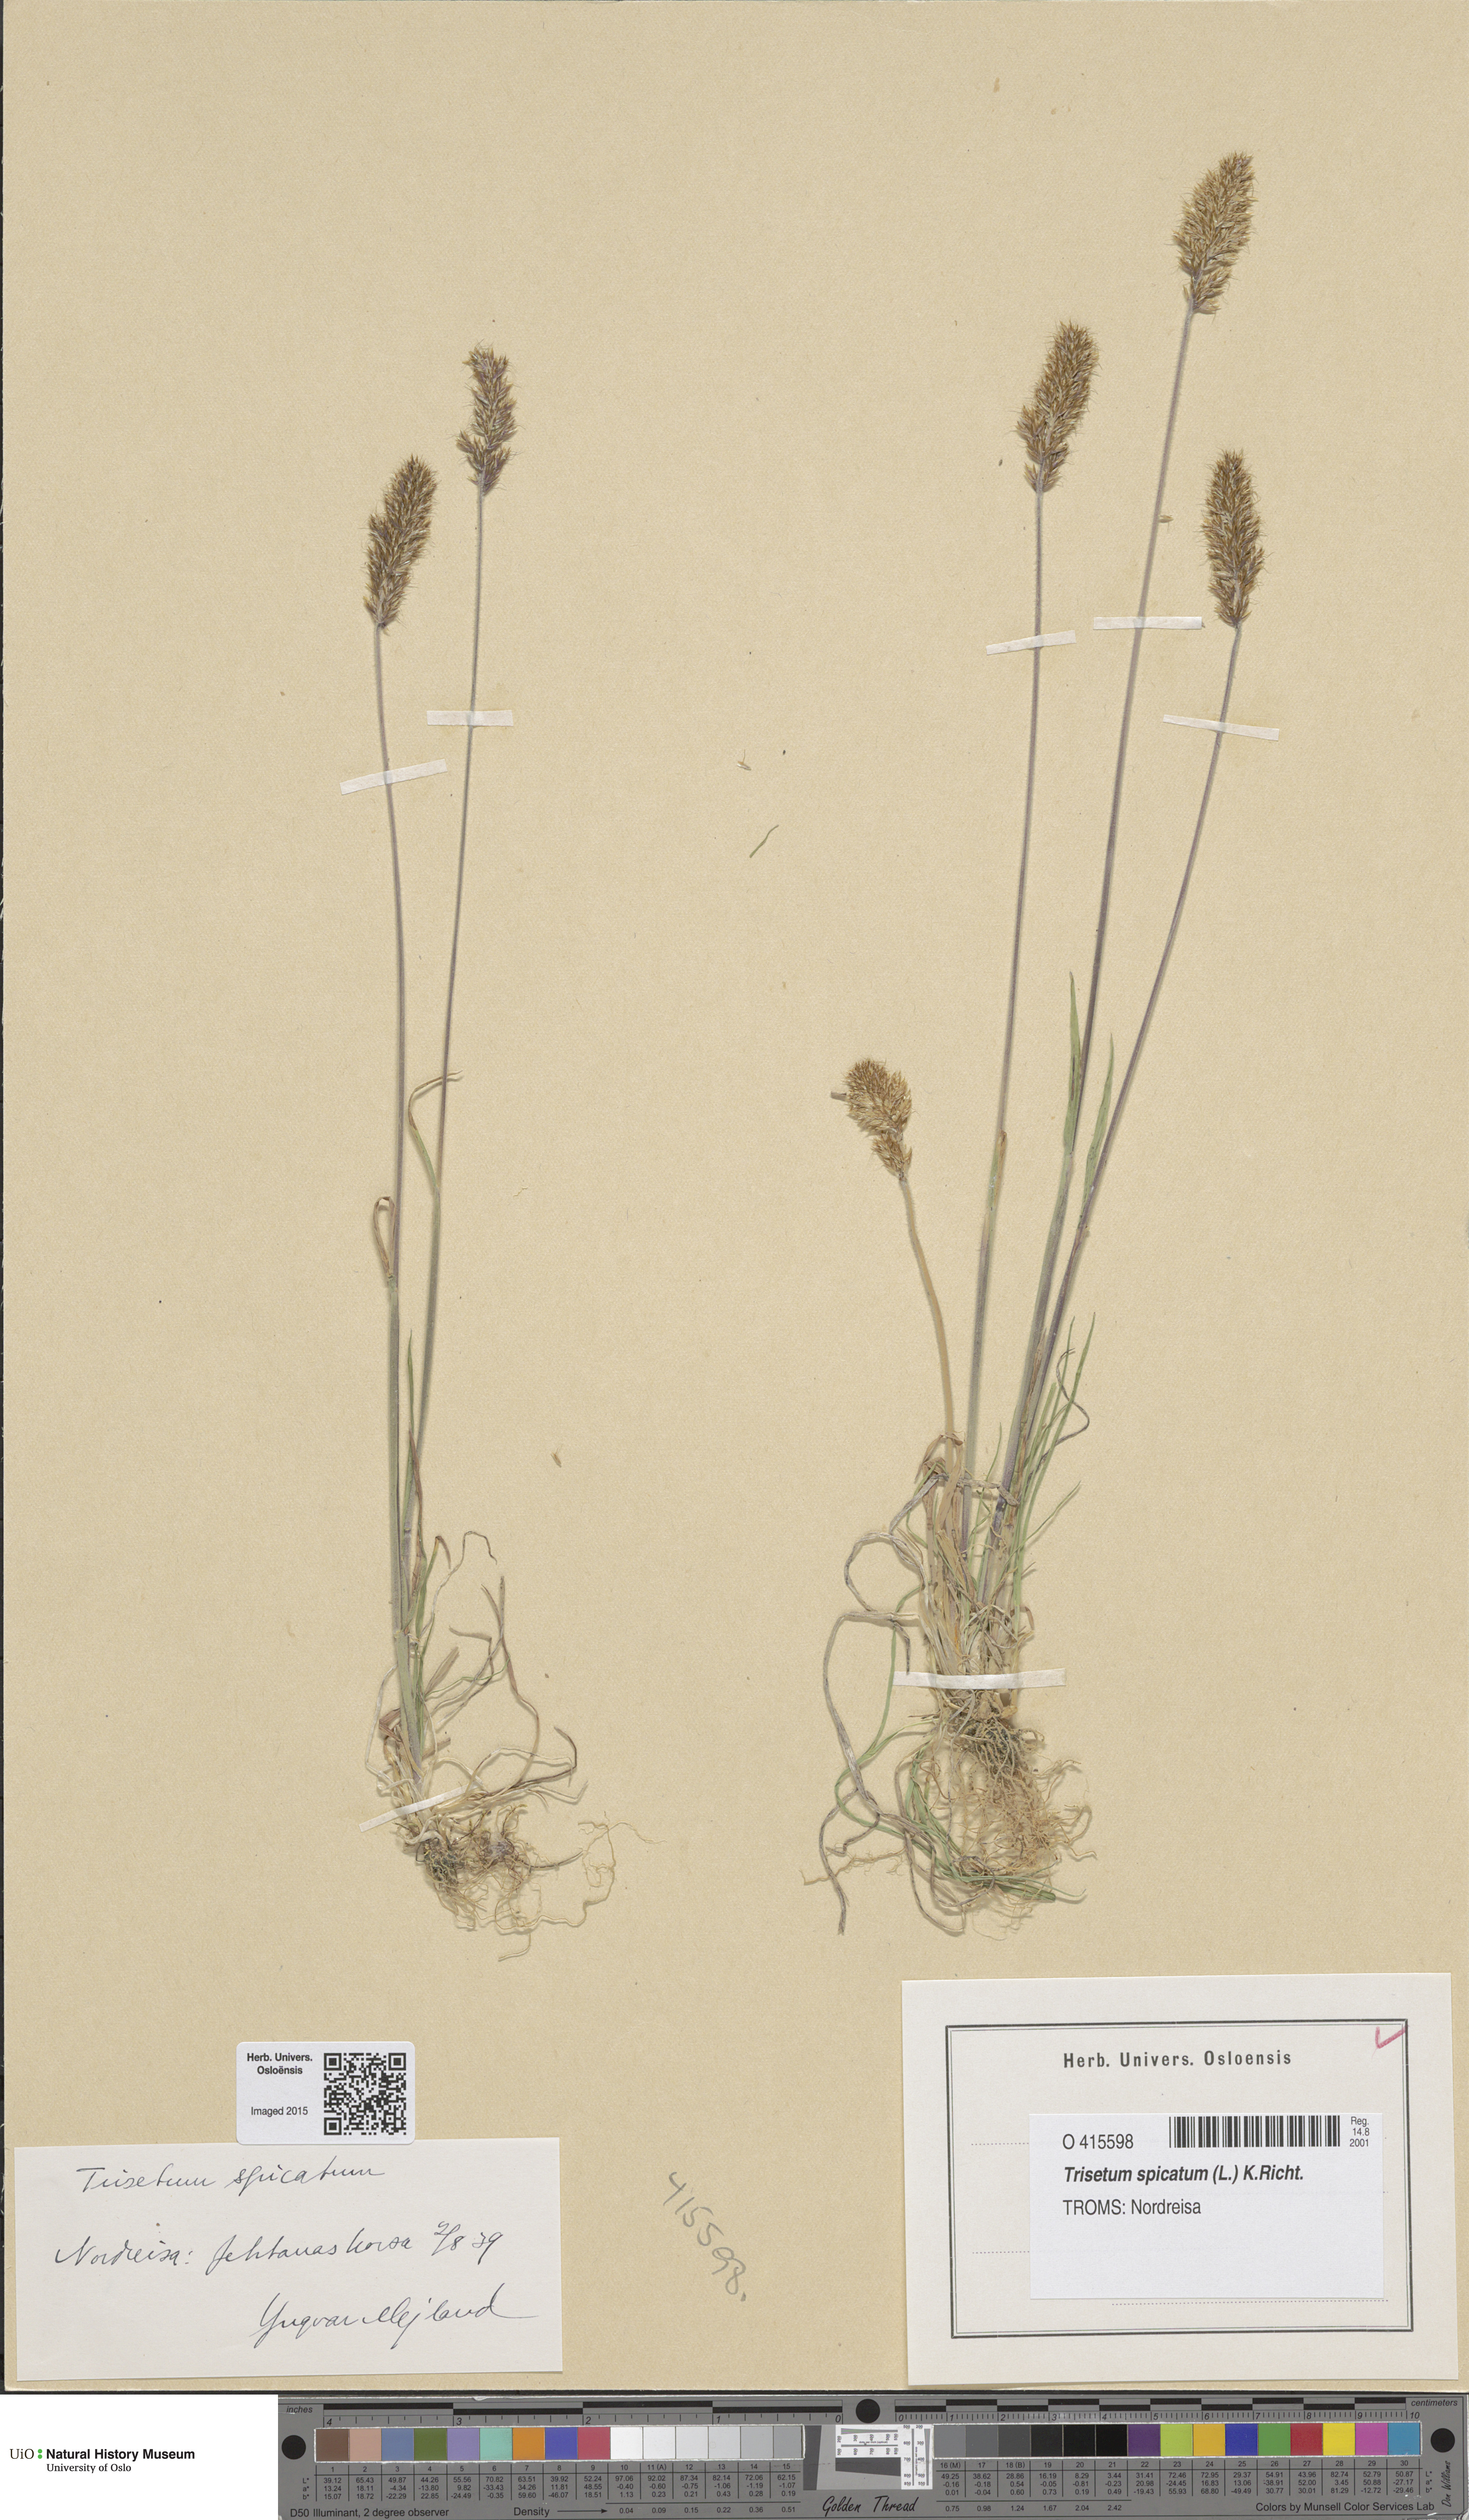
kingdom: Plantae
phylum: Tracheophyta
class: Liliopsida
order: Poales
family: Poaceae
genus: Koeleria
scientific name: Koeleria spicata
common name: Mountain trisetum
